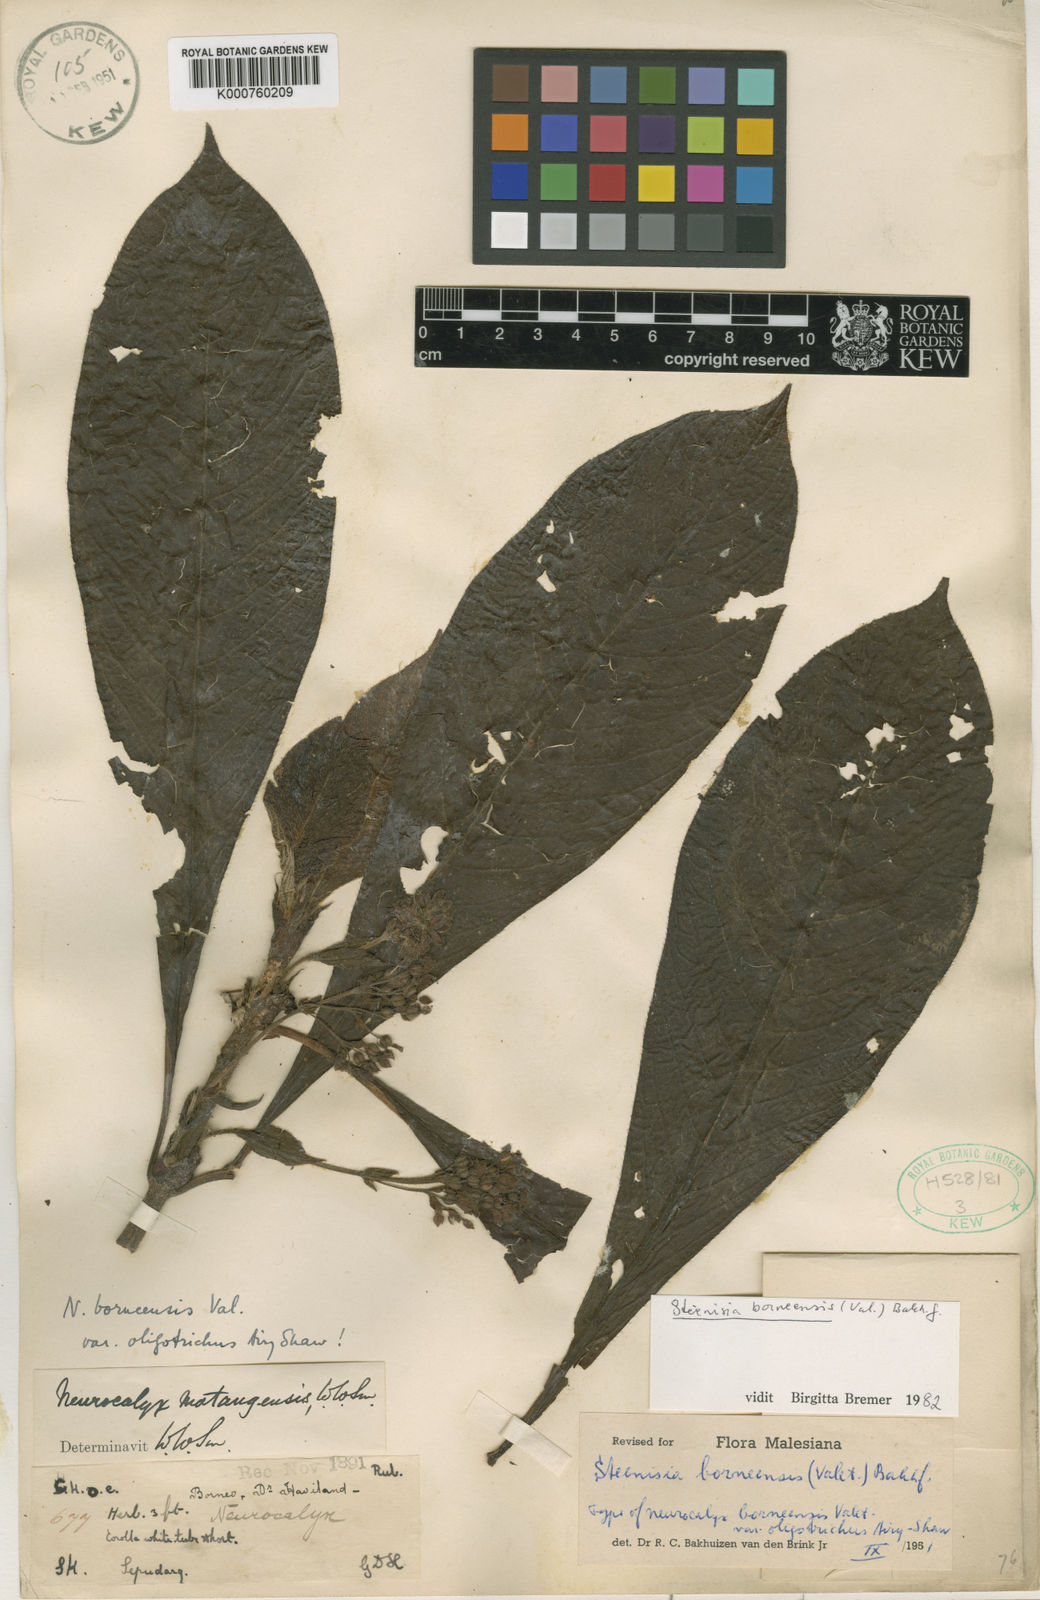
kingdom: Plantae
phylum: Tracheophyta
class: Magnoliopsida
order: Gentianales
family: Rubiaceae
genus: Steenisia
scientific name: Steenisia borneensis
